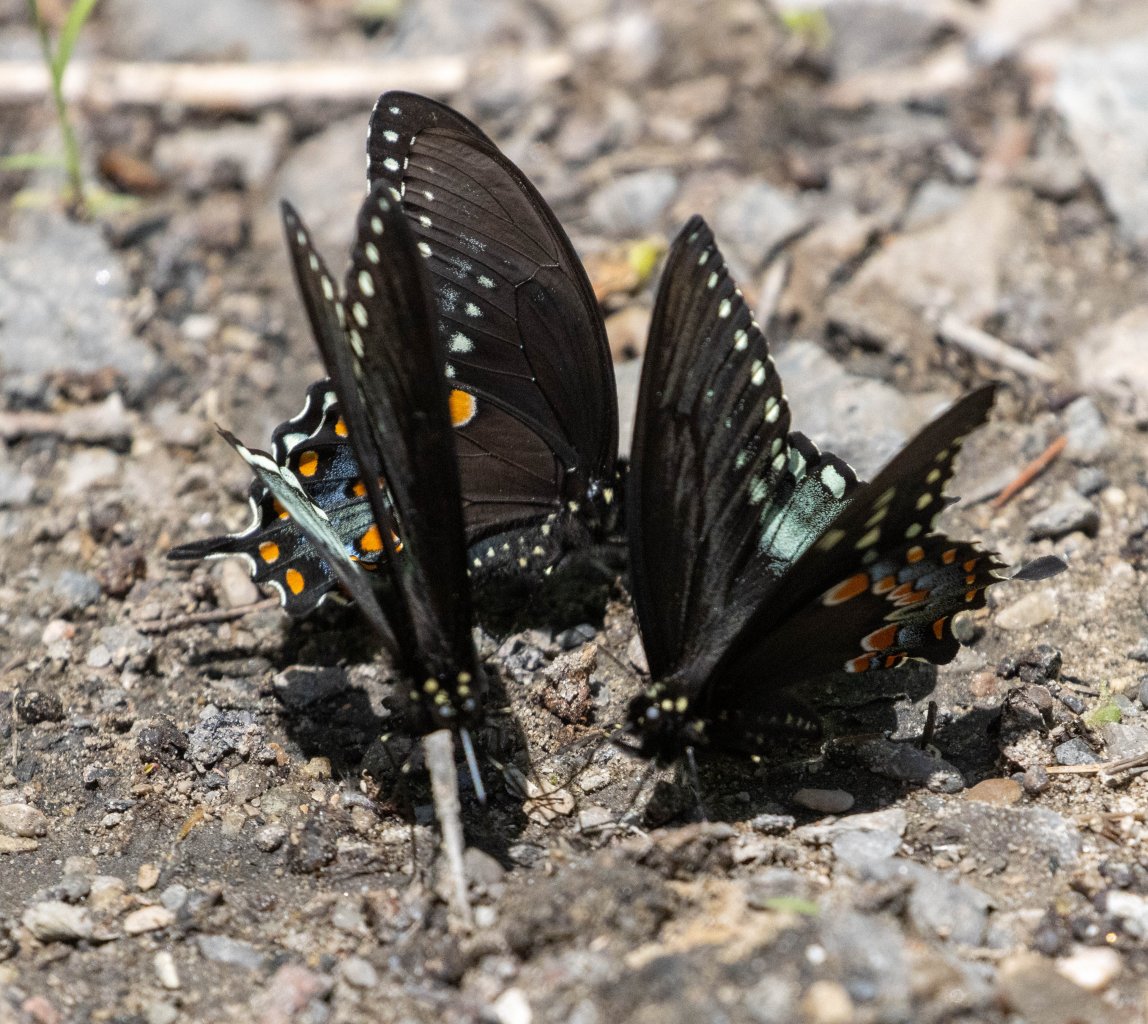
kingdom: Animalia
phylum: Arthropoda
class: Insecta
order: Lepidoptera
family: Papilionidae
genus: Pterourus
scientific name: Pterourus troilus
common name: Spicebush Swallowtail
